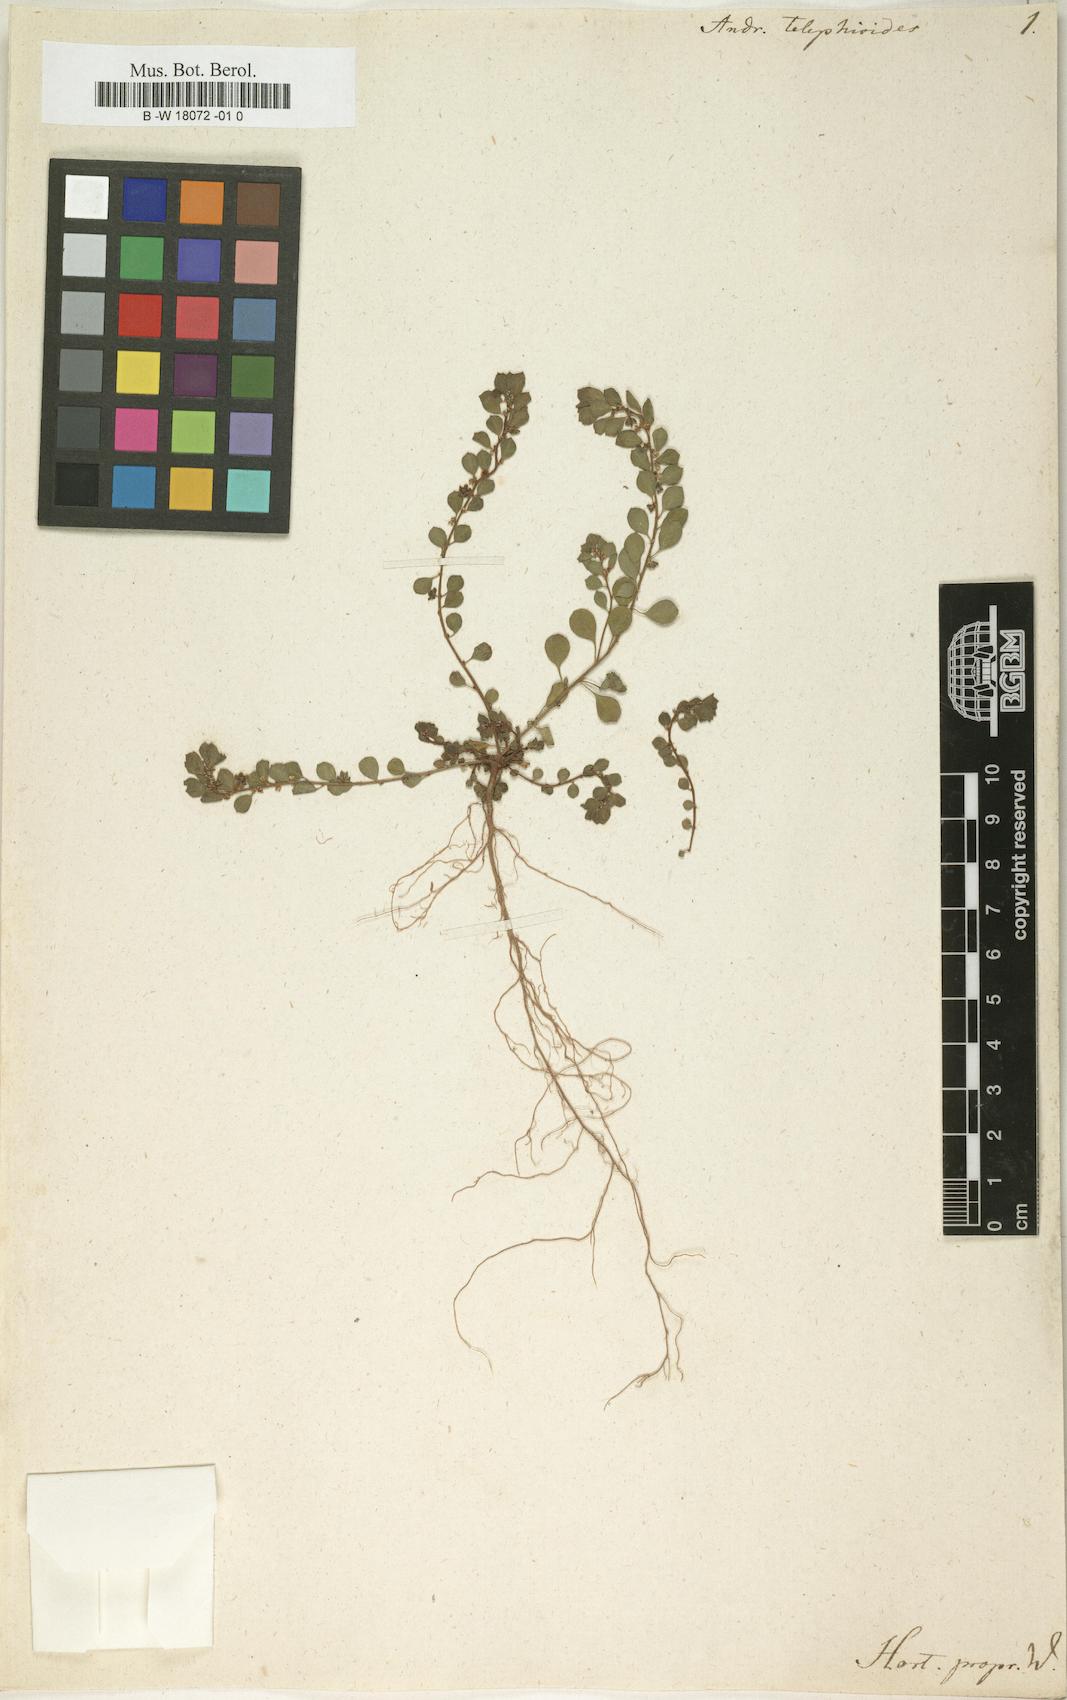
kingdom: Plantae
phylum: Tracheophyta
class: Magnoliopsida
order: Malpighiales
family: Phyllanthaceae
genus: Andrachne
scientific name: Andrachne telephioides
